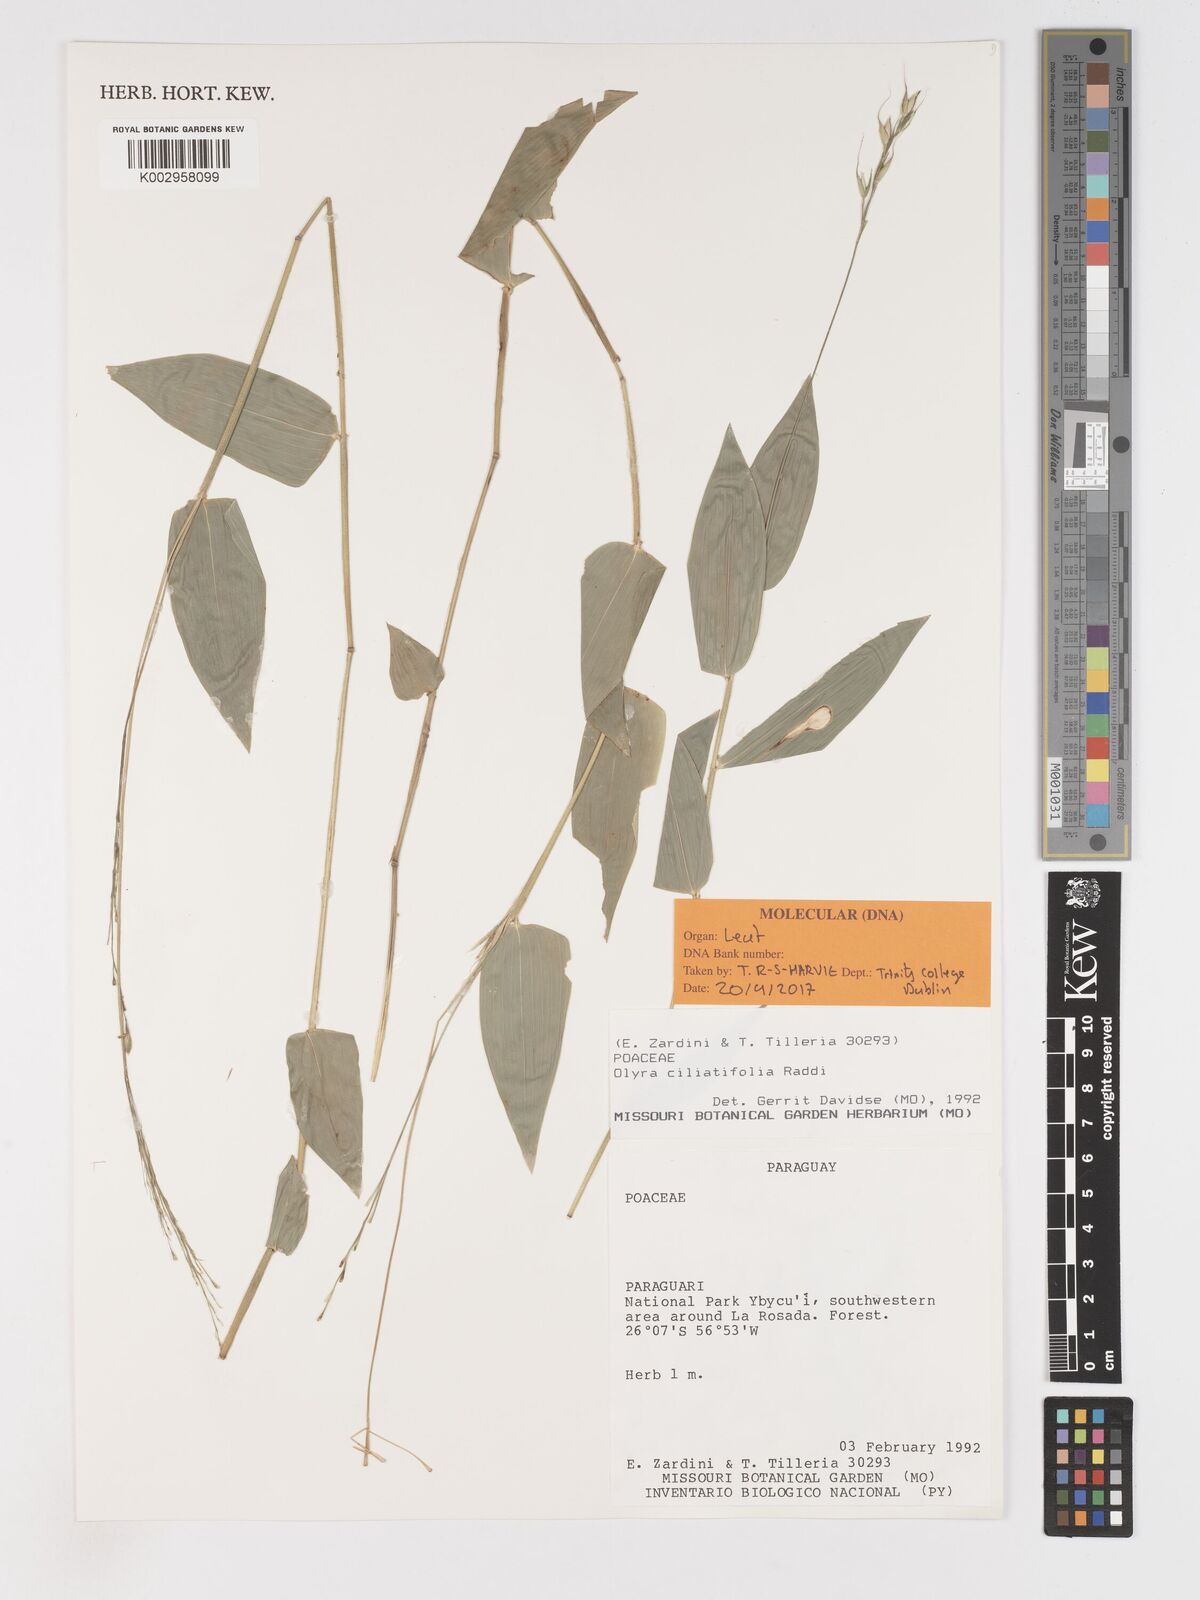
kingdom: Plantae
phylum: Tracheophyta
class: Liliopsida
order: Poales
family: Poaceae
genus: Olyra
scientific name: Olyra ciliatifolia
